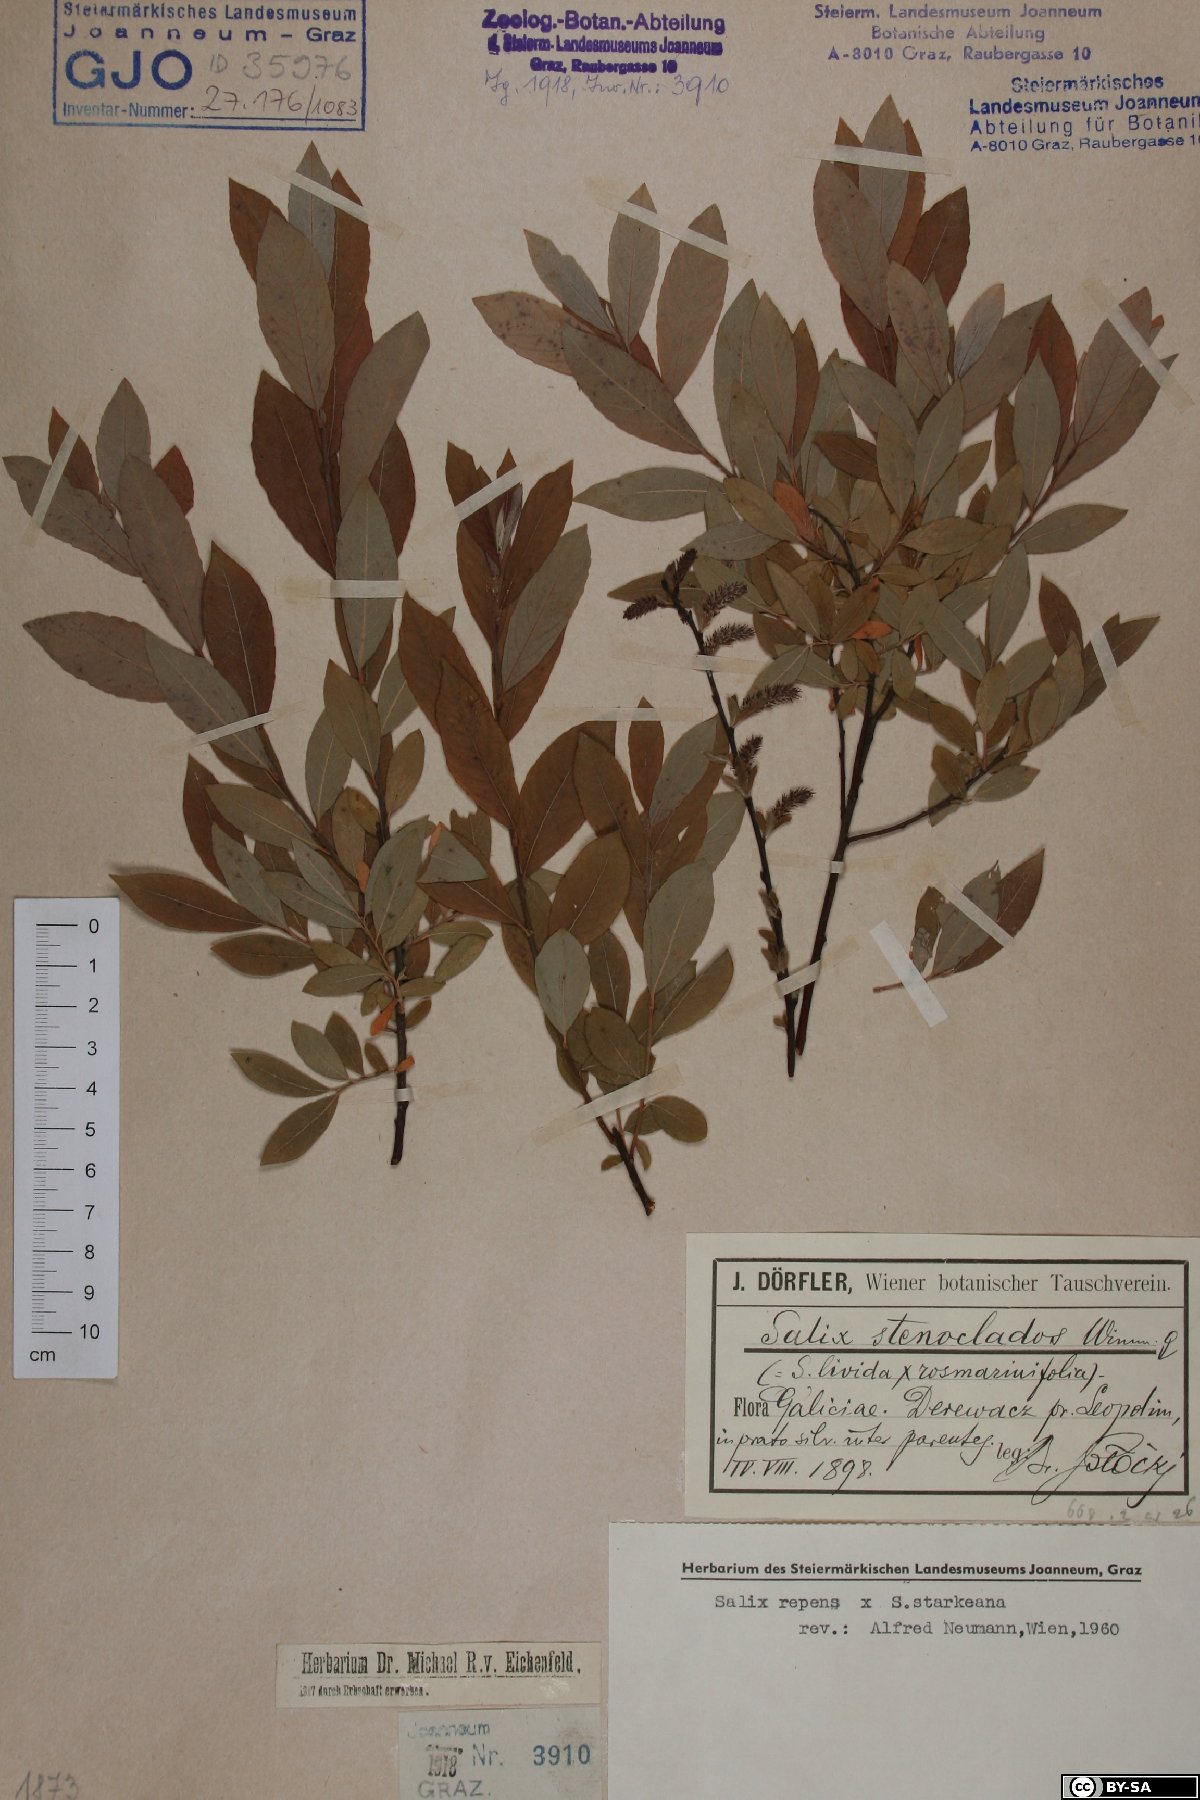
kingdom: Plantae
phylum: Tracheophyta
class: Magnoliopsida
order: Malpighiales
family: Salicaceae
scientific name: Salicaceae
